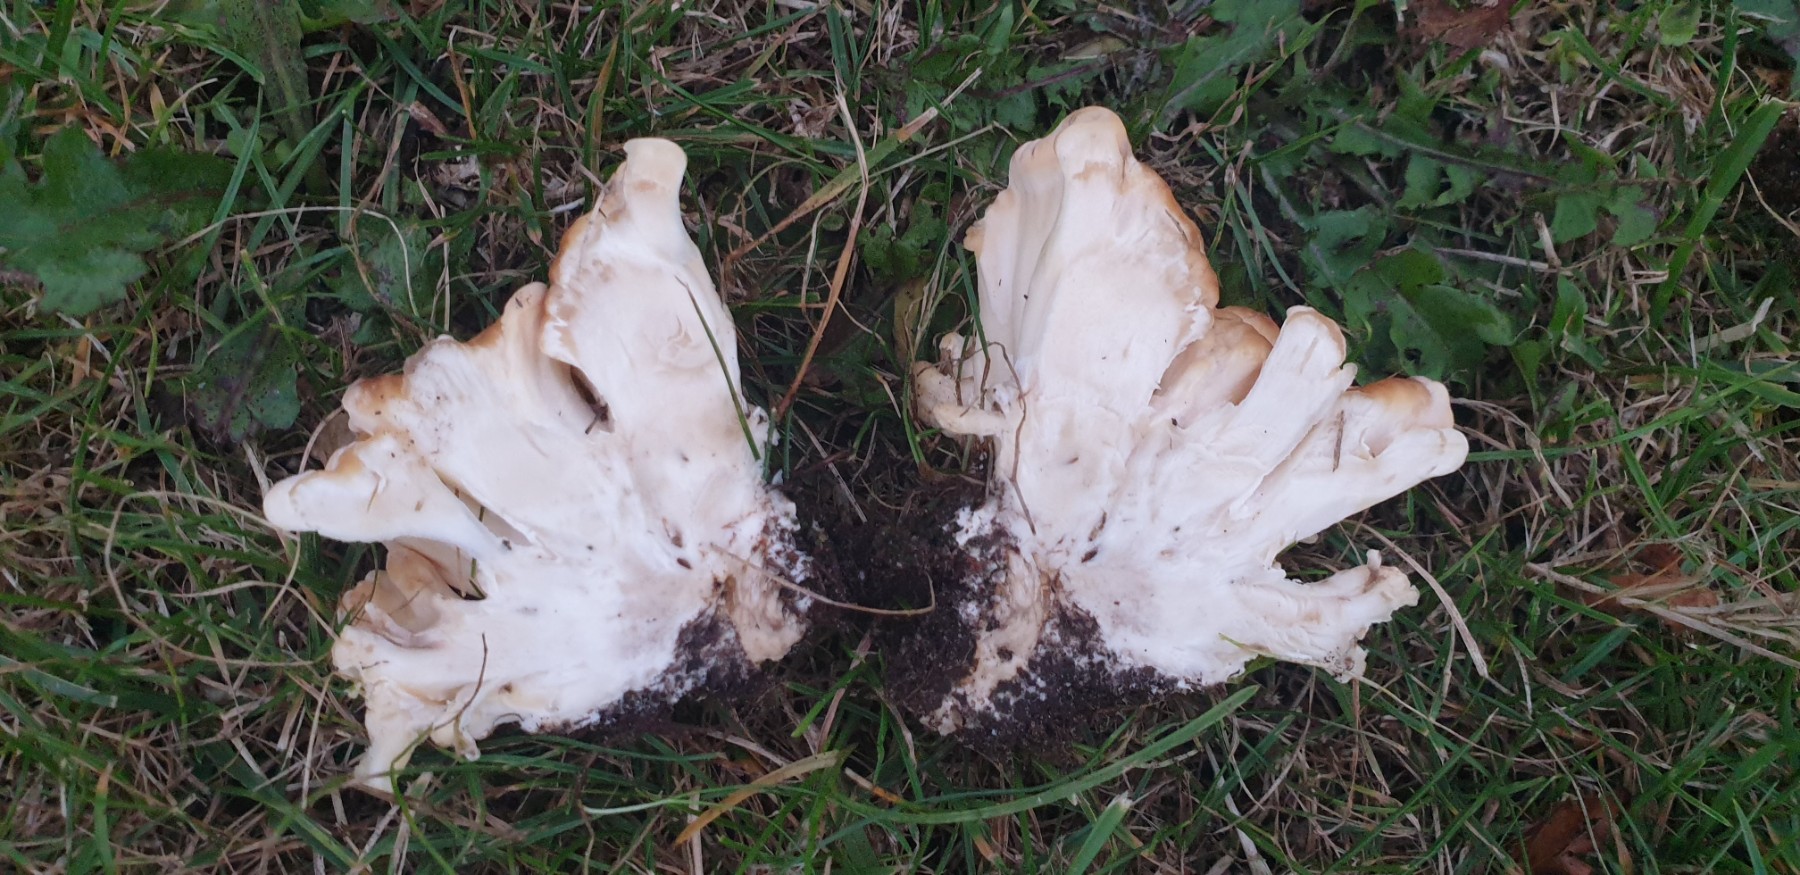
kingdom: Fungi
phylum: Basidiomycota
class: Agaricomycetes
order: Polyporales
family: Meripilaceae
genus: Meripilus
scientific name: Meripilus giganteus
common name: kæmpeporesvamp
